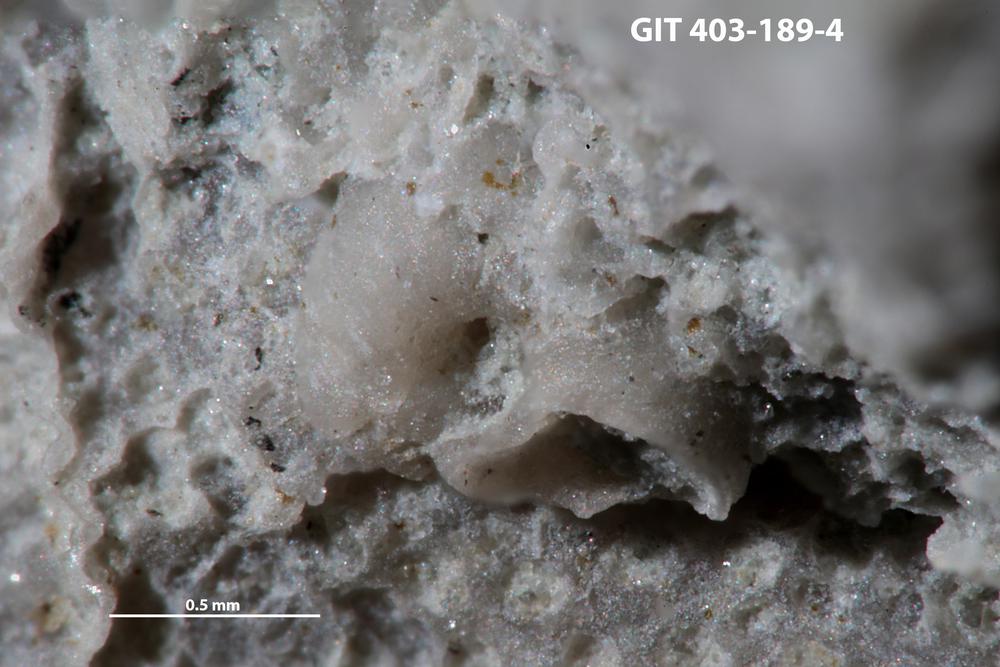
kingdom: Animalia
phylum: Mollusca
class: Cricoconarida
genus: Palaeoconchus
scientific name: Palaeoconchus
